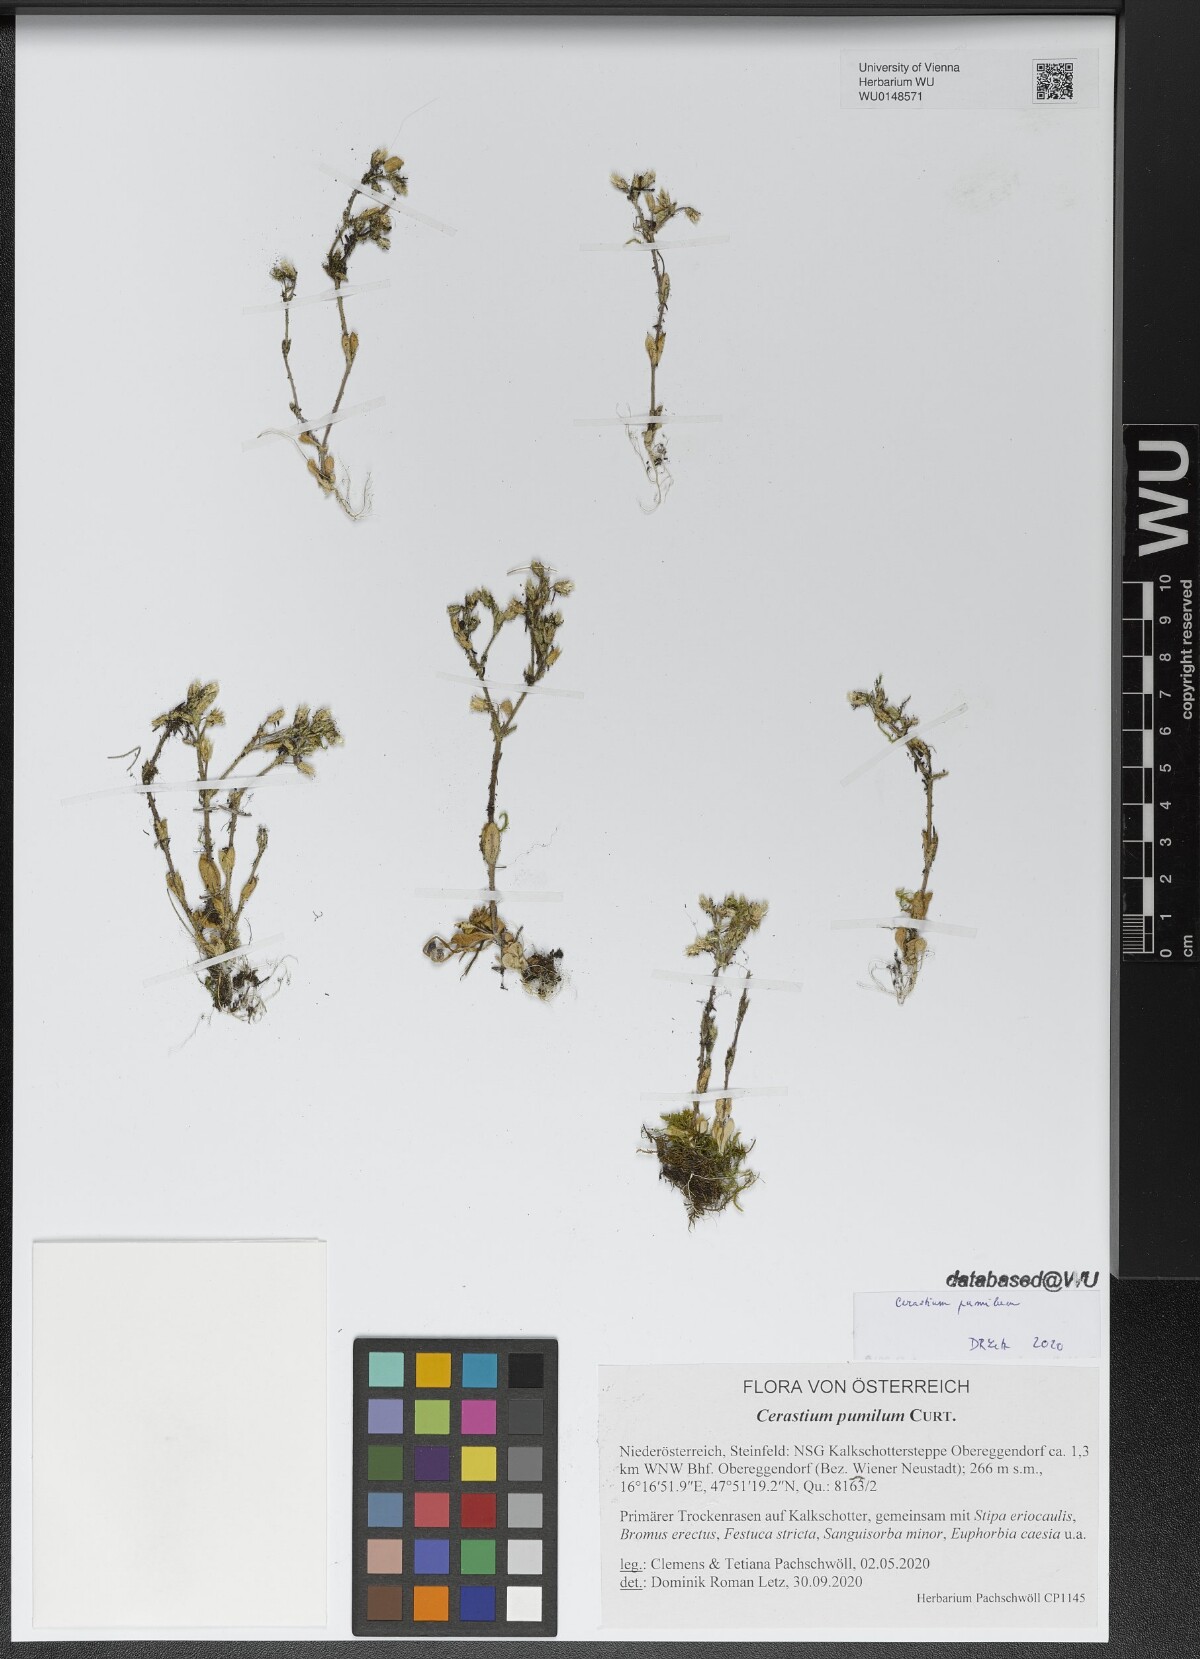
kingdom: Plantae
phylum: Tracheophyta
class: Magnoliopsida
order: Caryophyllales
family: Caryophyllaceae
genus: Cerastium
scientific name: Cerastium pumilum
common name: Dwarf mouse-ear
